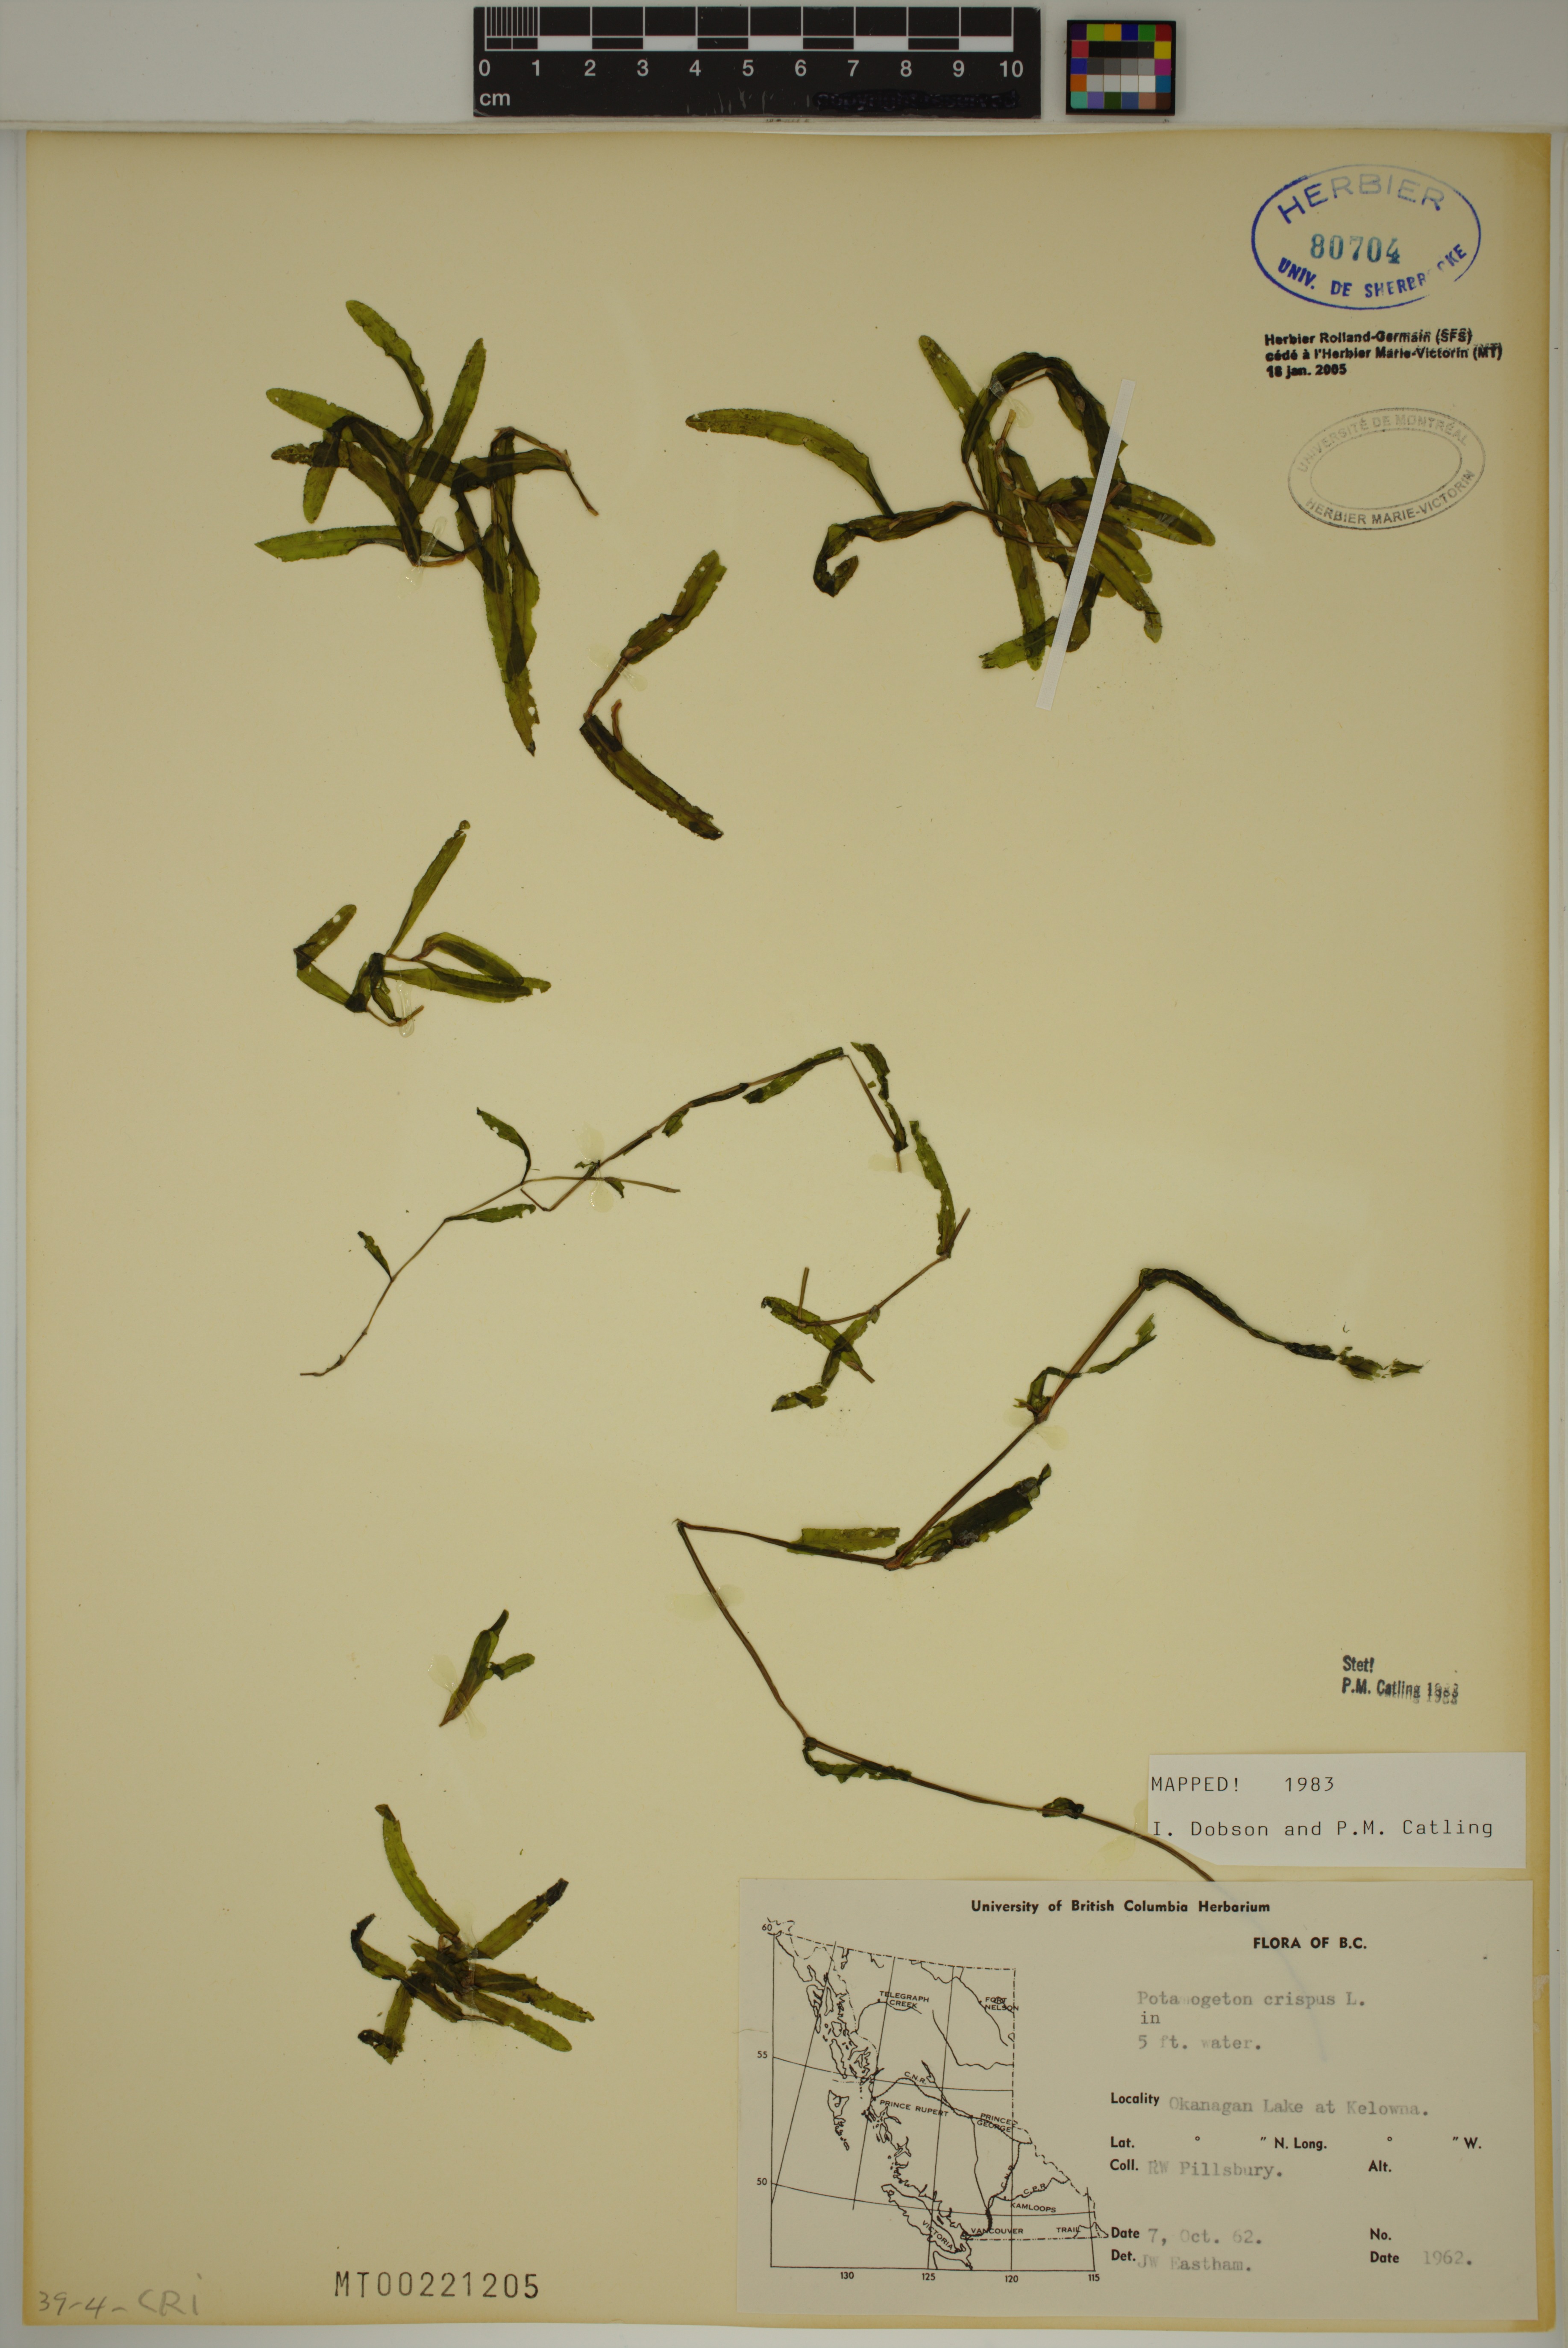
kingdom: Plantae
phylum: Tracheophyta
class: Liliopsida
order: Alismatales
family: Potamogetonaceae
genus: Potamogeton
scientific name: Potamogeton crispus
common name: Curled pondweed
